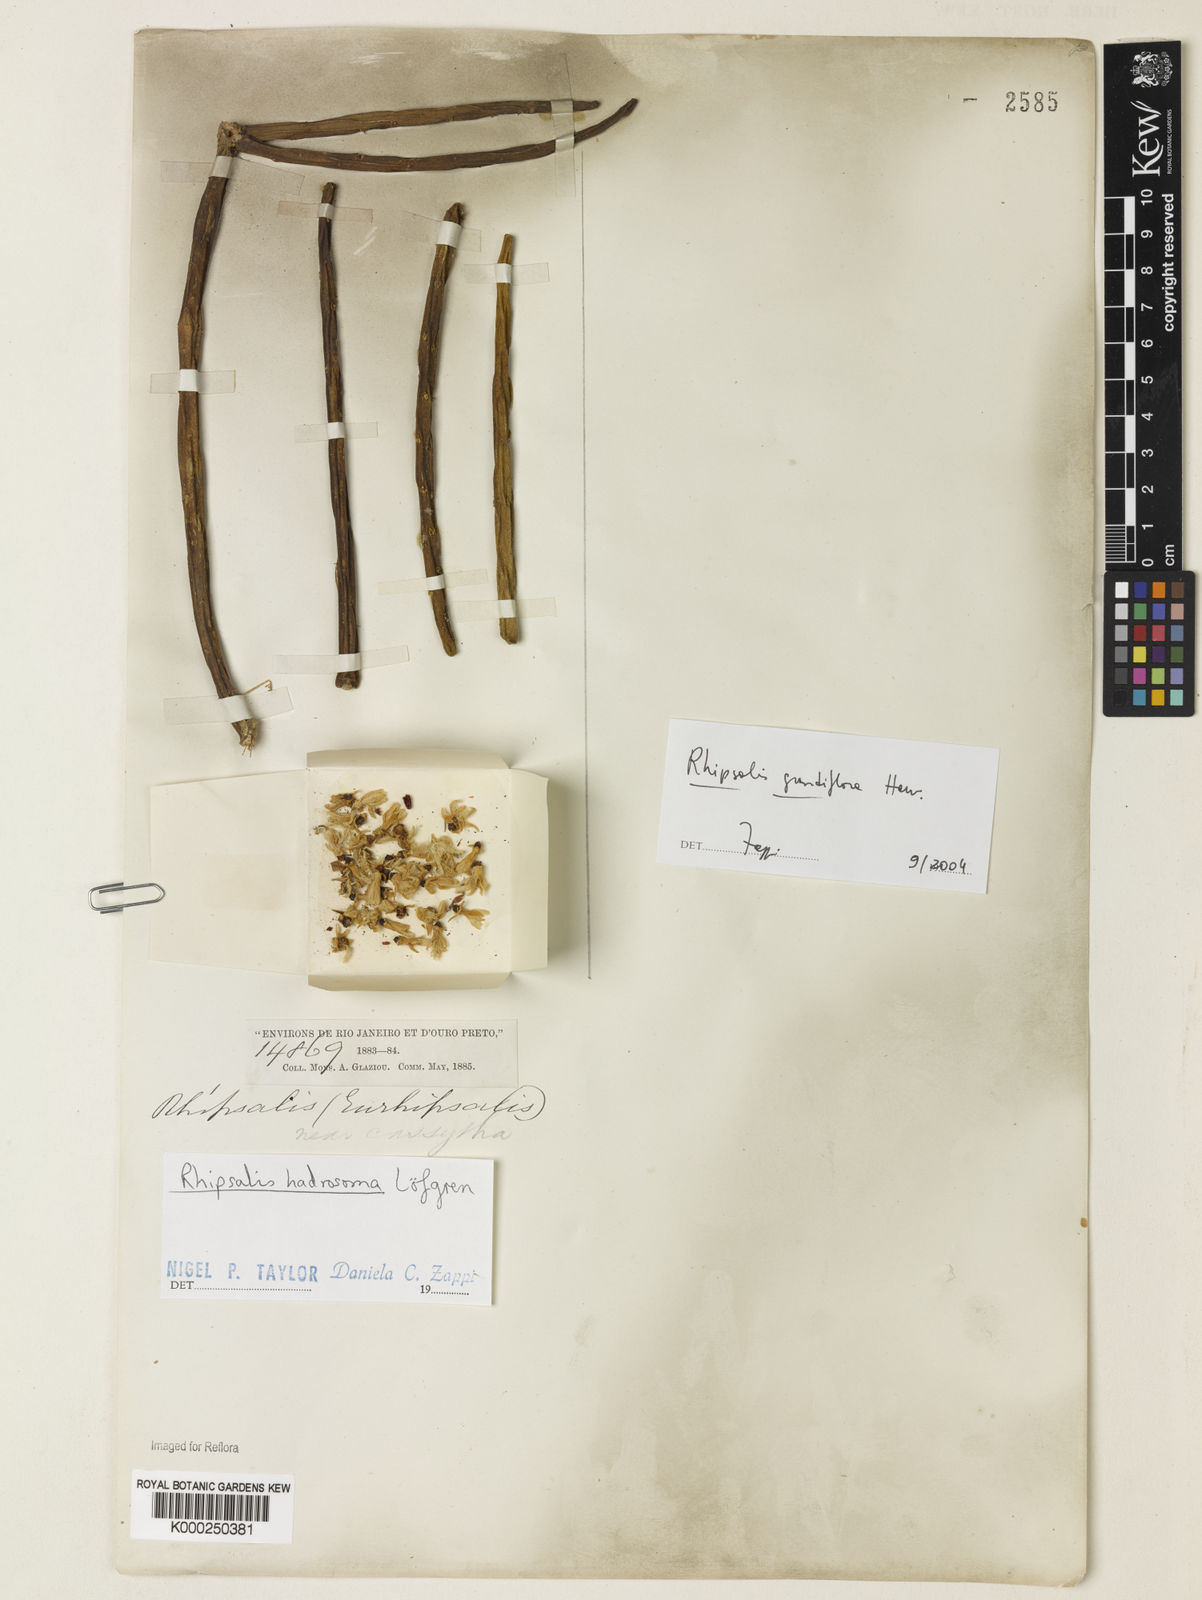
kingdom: Plantae
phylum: Tracheophyta
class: Magnoliopsida
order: Caryophyllales
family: Cactaceae
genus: Rhipsalis
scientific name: Rhipsalis grandiflora
